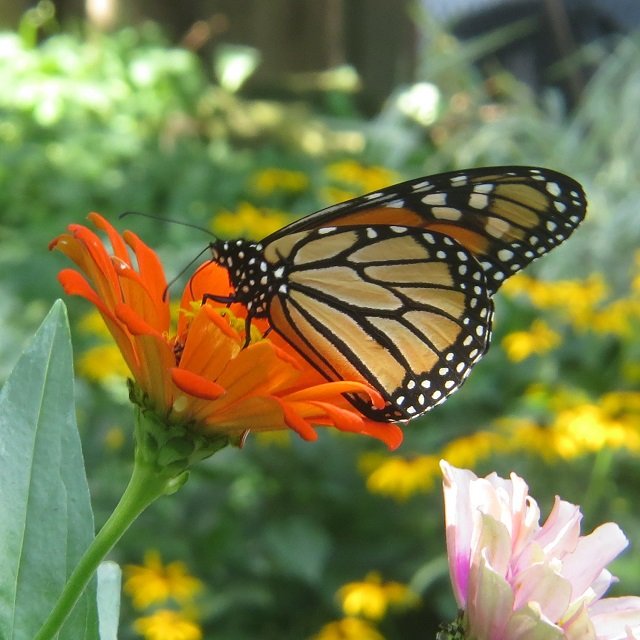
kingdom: Animalia
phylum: Arthropoda
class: Insecta
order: Lepidoptera
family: Nymphalidae
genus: Danaus
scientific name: Danaus plexippus
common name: Monarch
